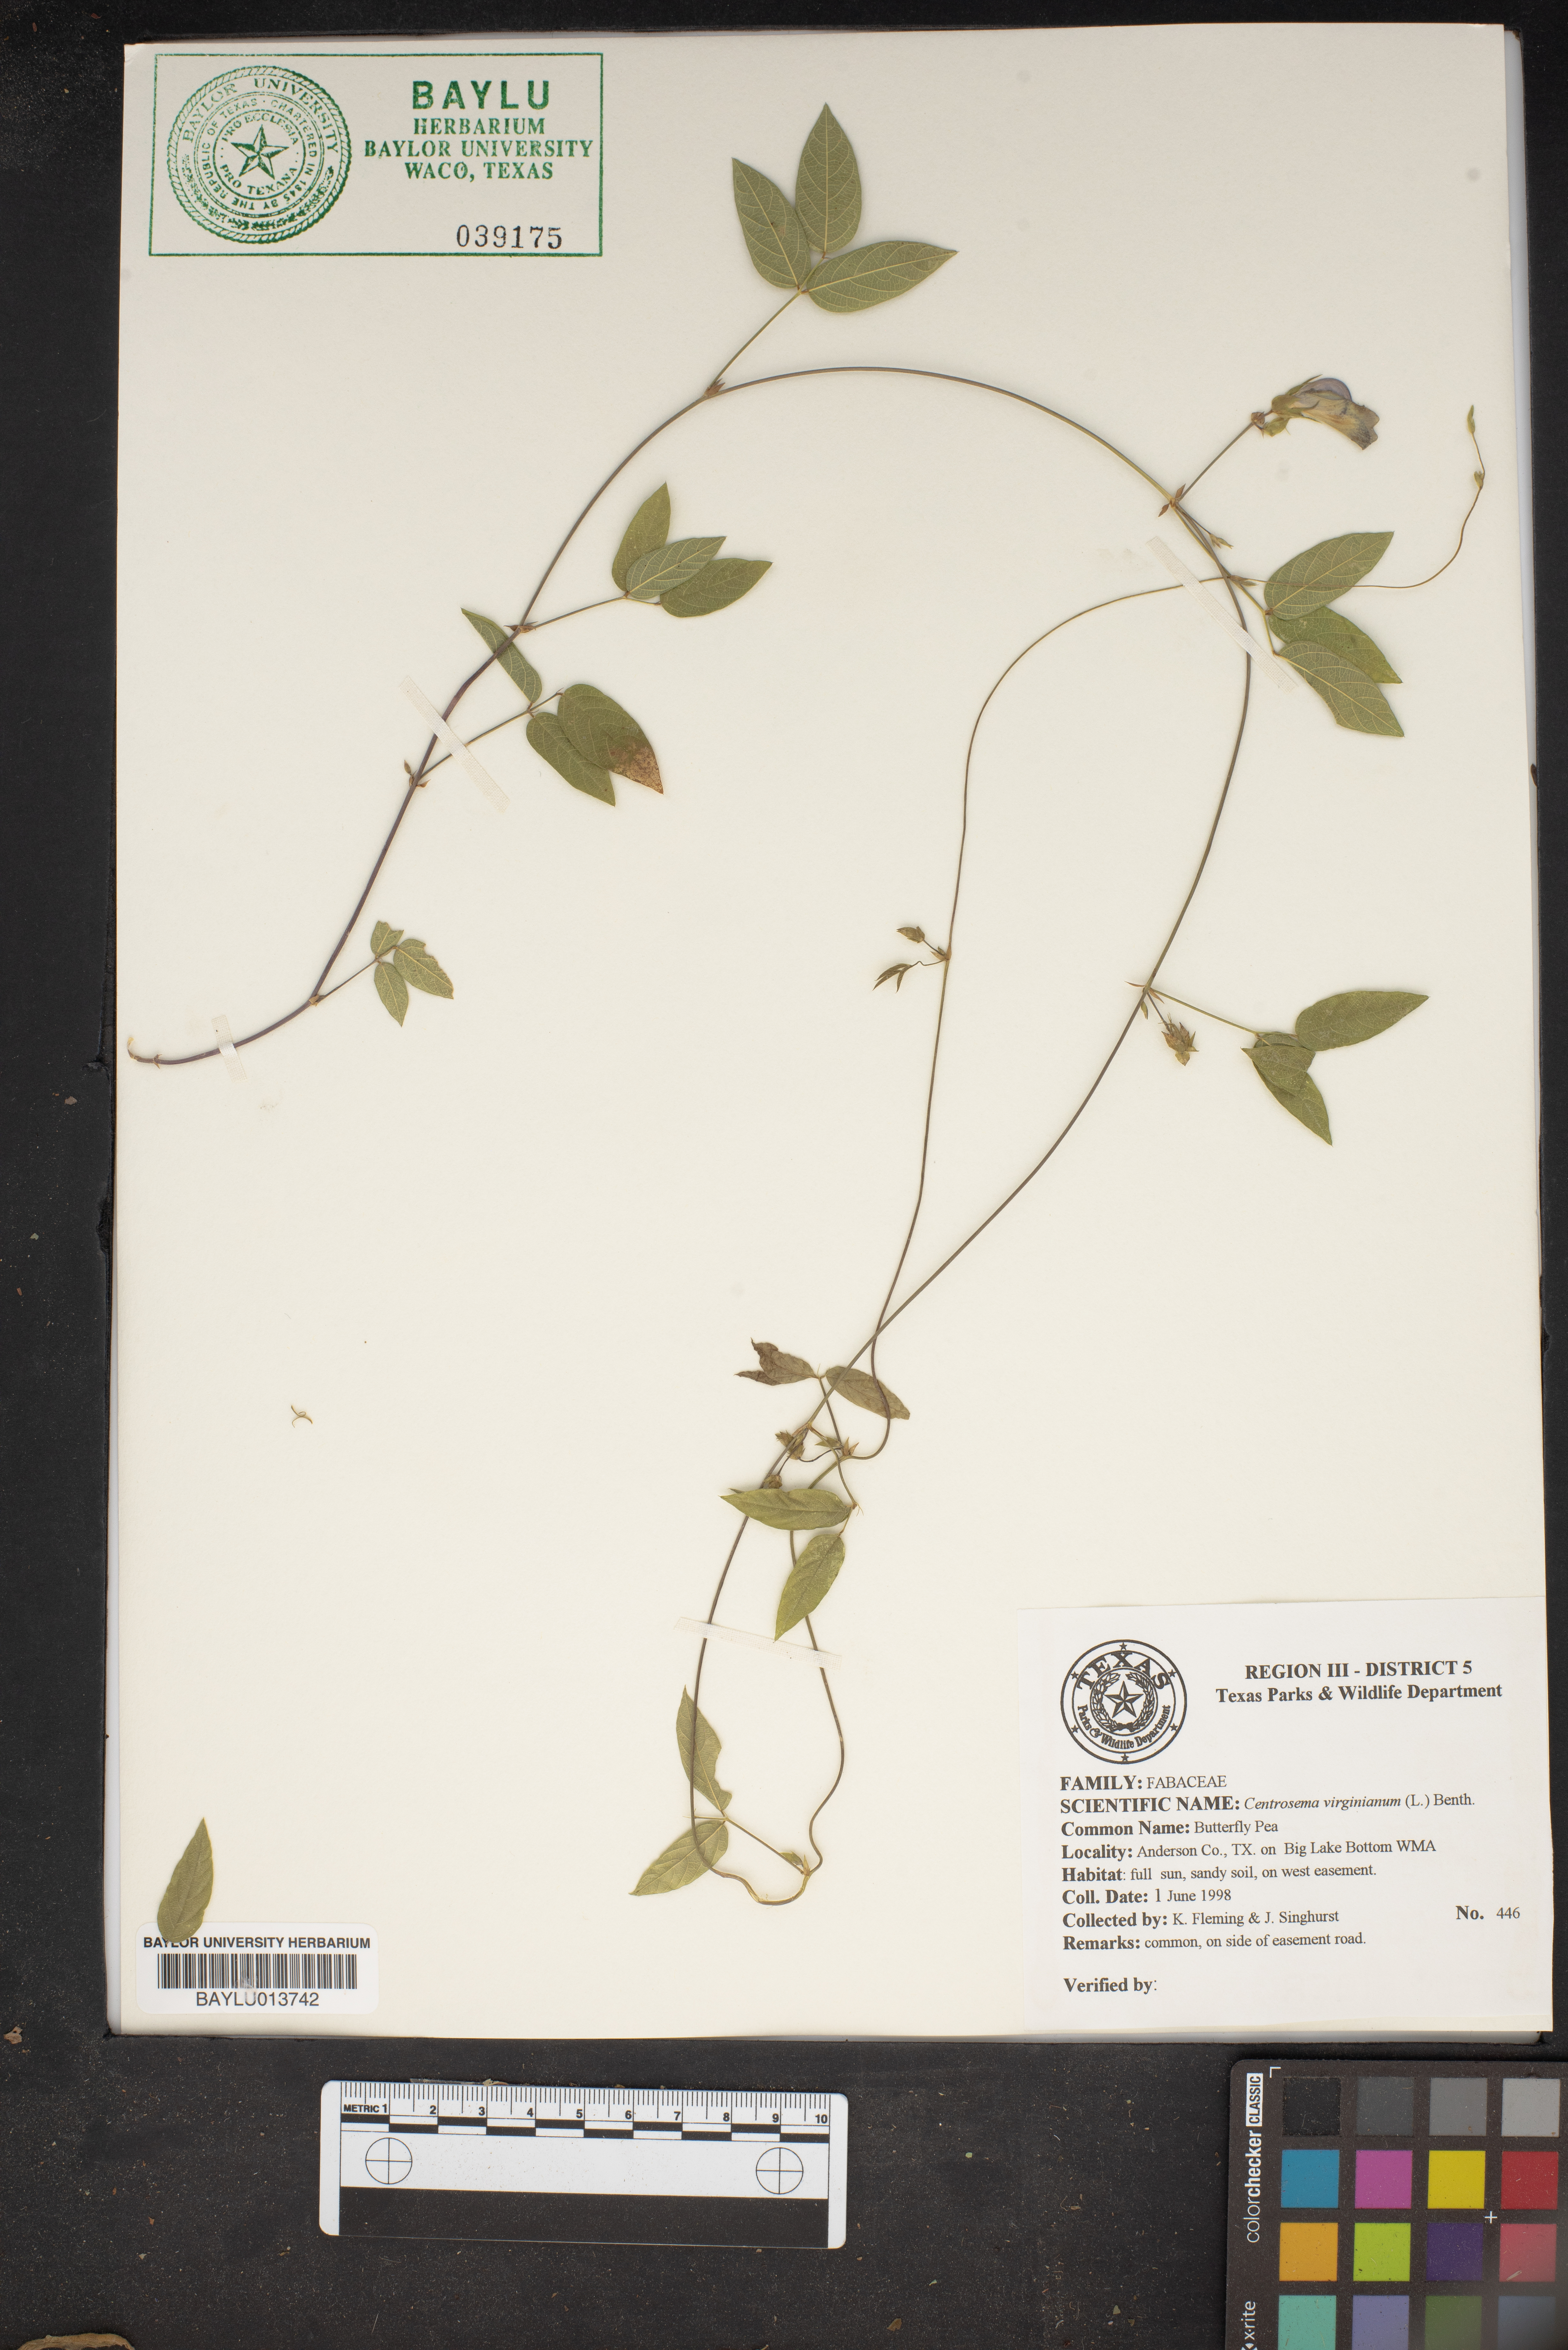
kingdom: Plantae
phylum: Tracheophyta
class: Magnoliopsida
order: Fabales
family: Fabaceae
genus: Centrosema
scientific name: Centrosema virginianum
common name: Butterfly-pea
